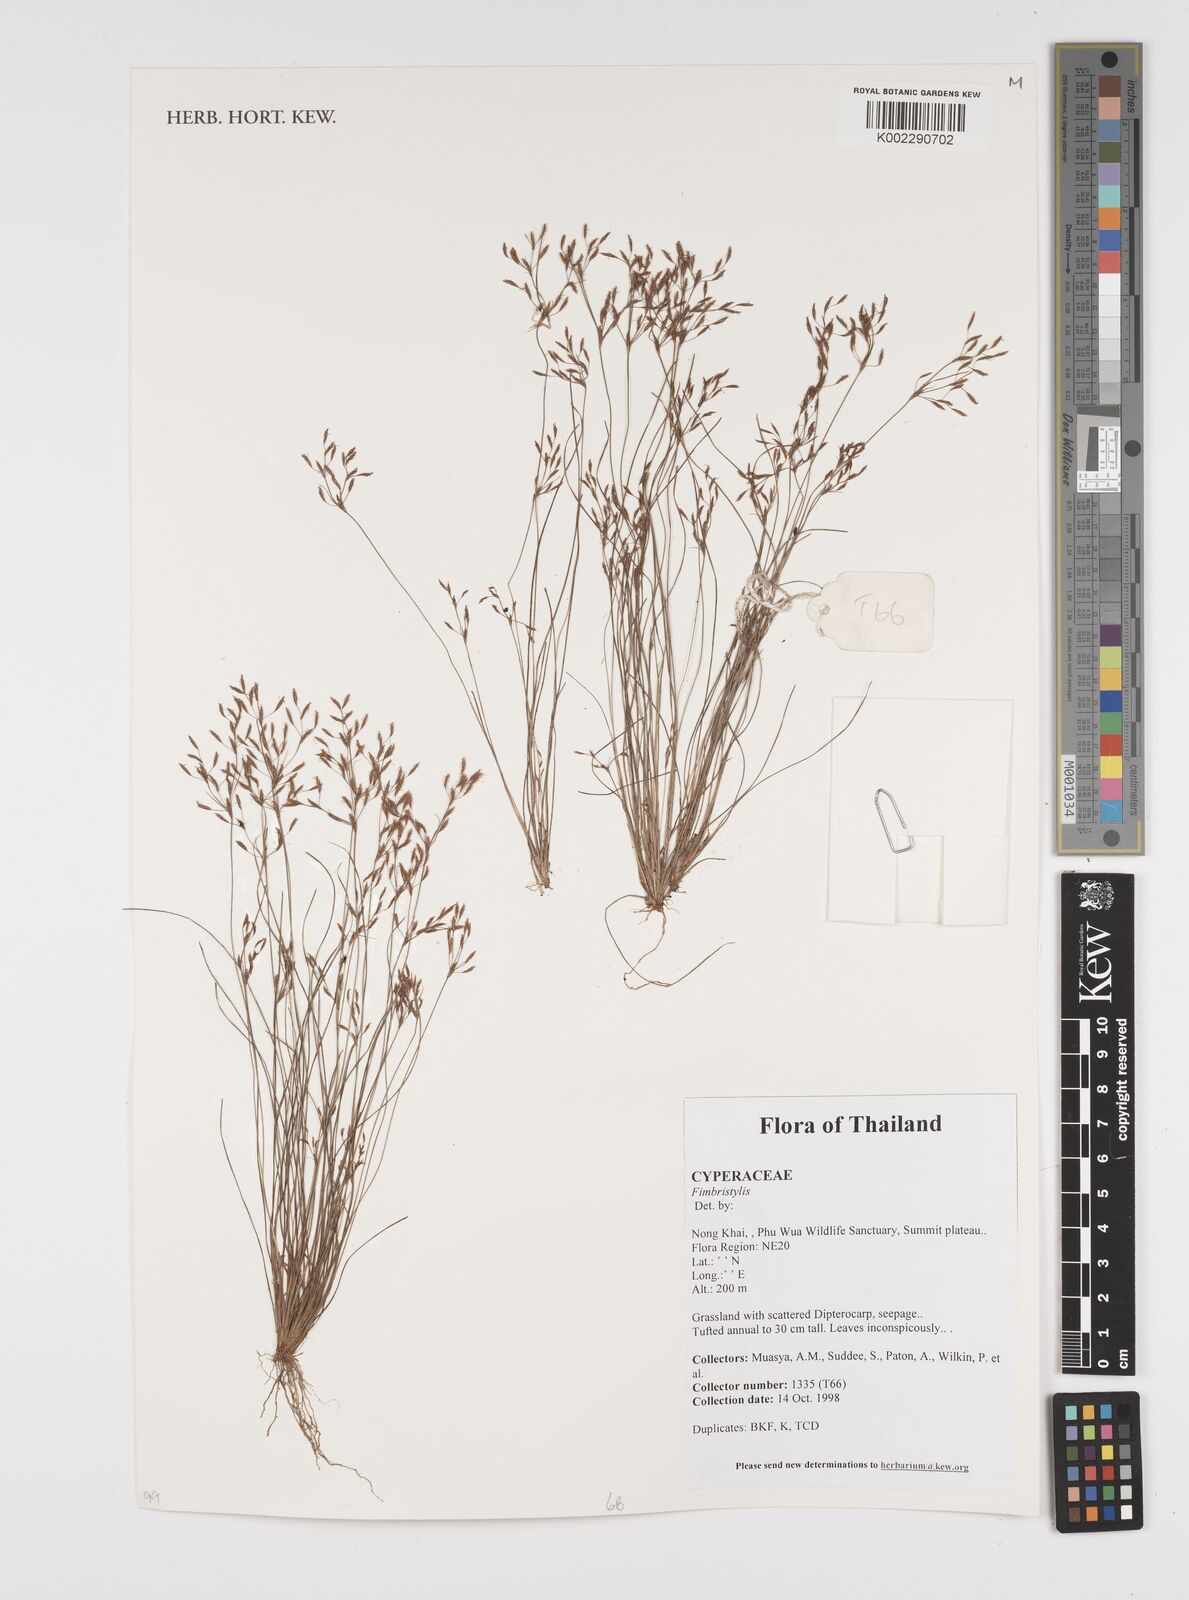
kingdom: Plantae
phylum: Tracheophyta
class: Liliopsida
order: Poales
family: Cyperaceae
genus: Fimbristylis
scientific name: Fimbristylis
